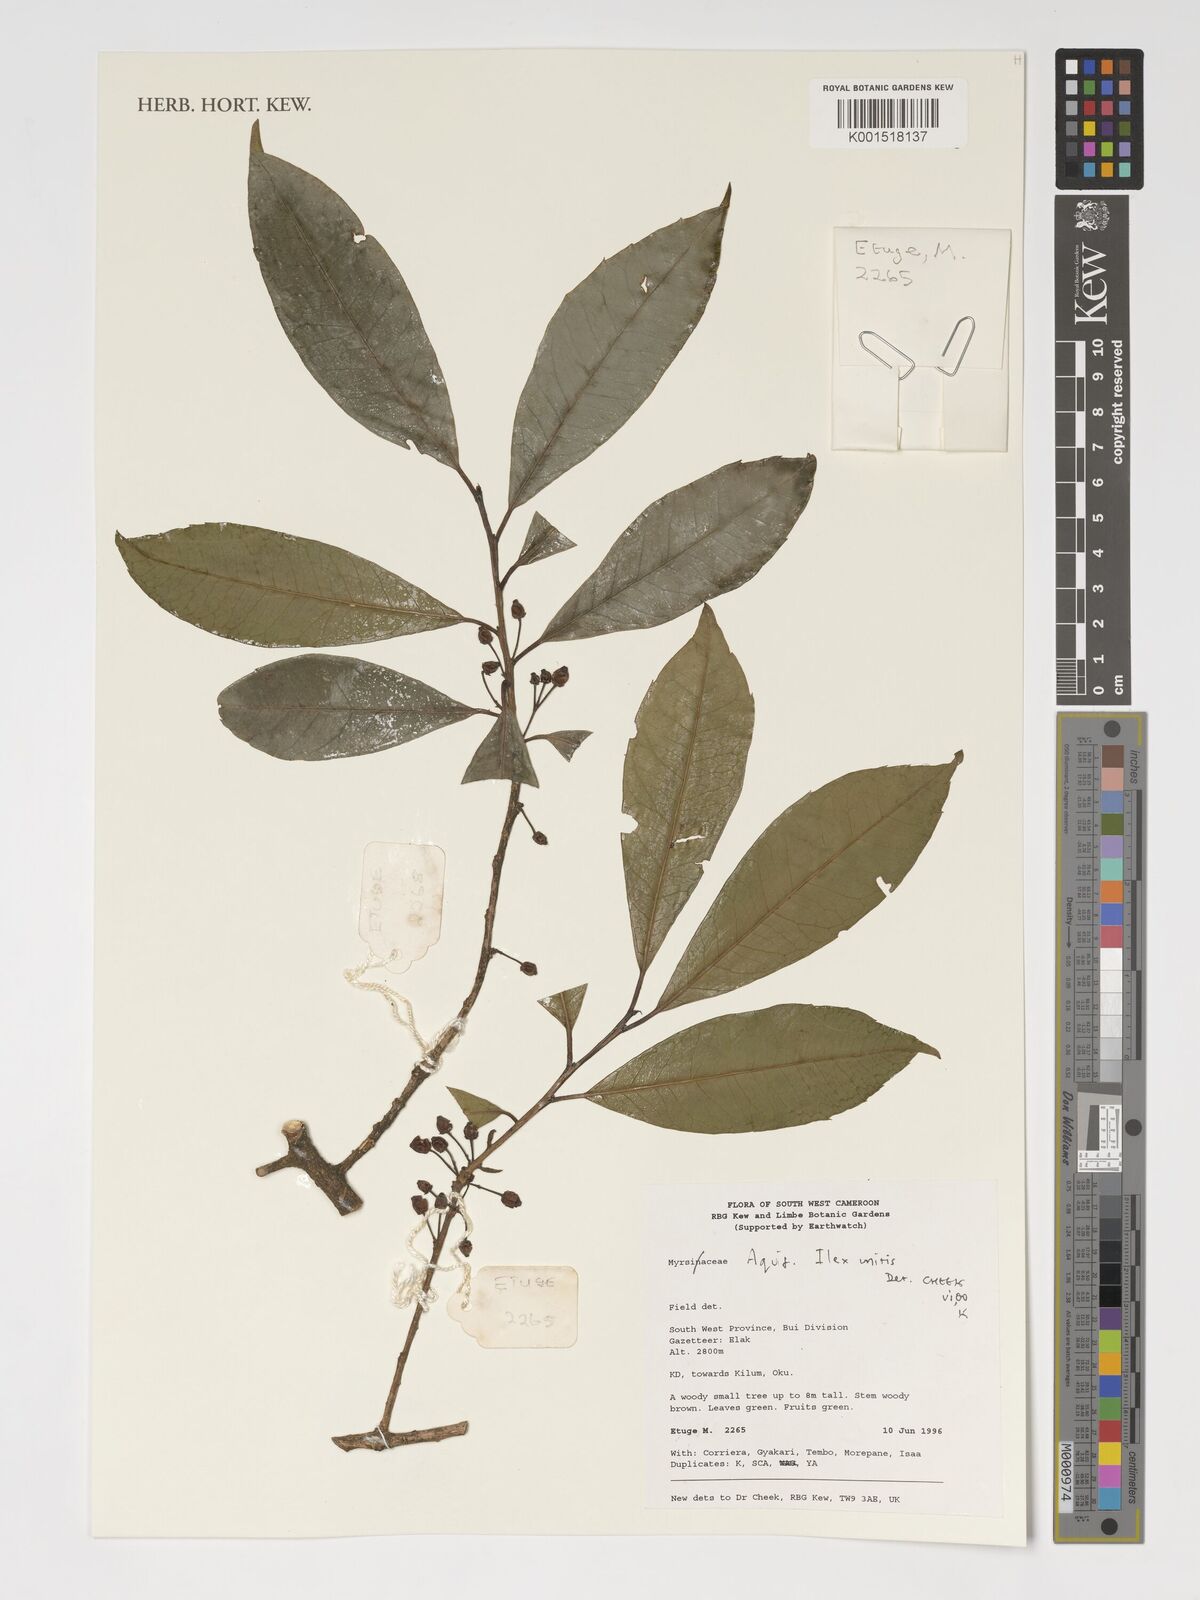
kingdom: Plantae
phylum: Tracheophyta
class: Magnoliopsida
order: Aquifoliales
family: Aquifoliaceae
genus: Ilex
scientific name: Ilex guayusa
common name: Guayusa
